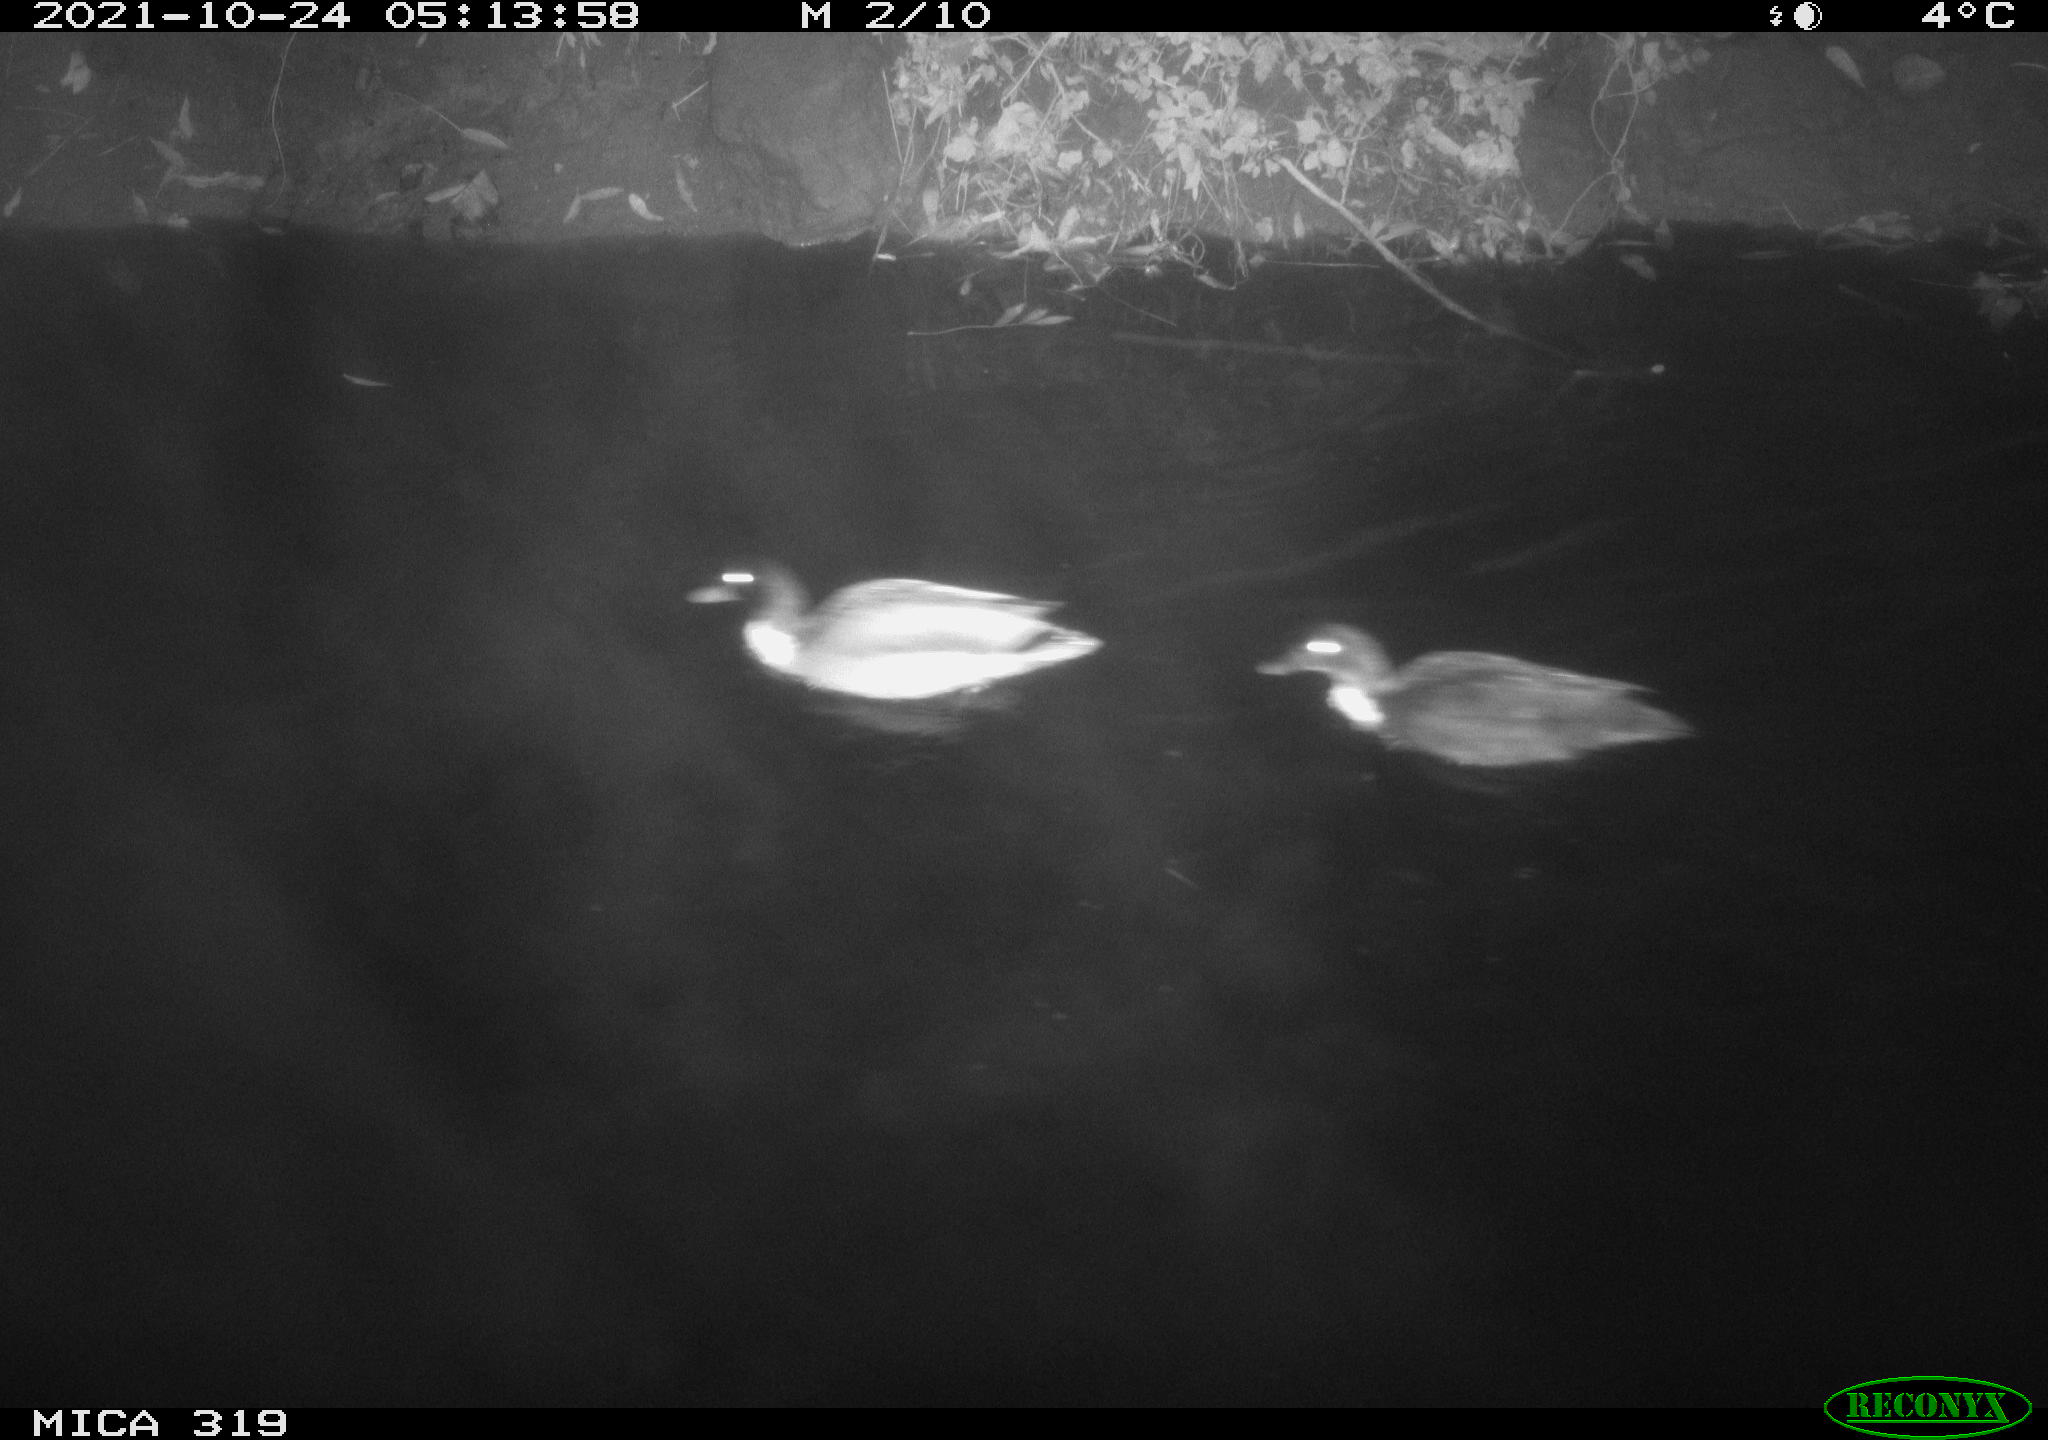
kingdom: Animalia
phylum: Chordata
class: Aves
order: Anseriformes
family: Anatidae
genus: Anas
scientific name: Anas platyrhynchos
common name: Mallard
